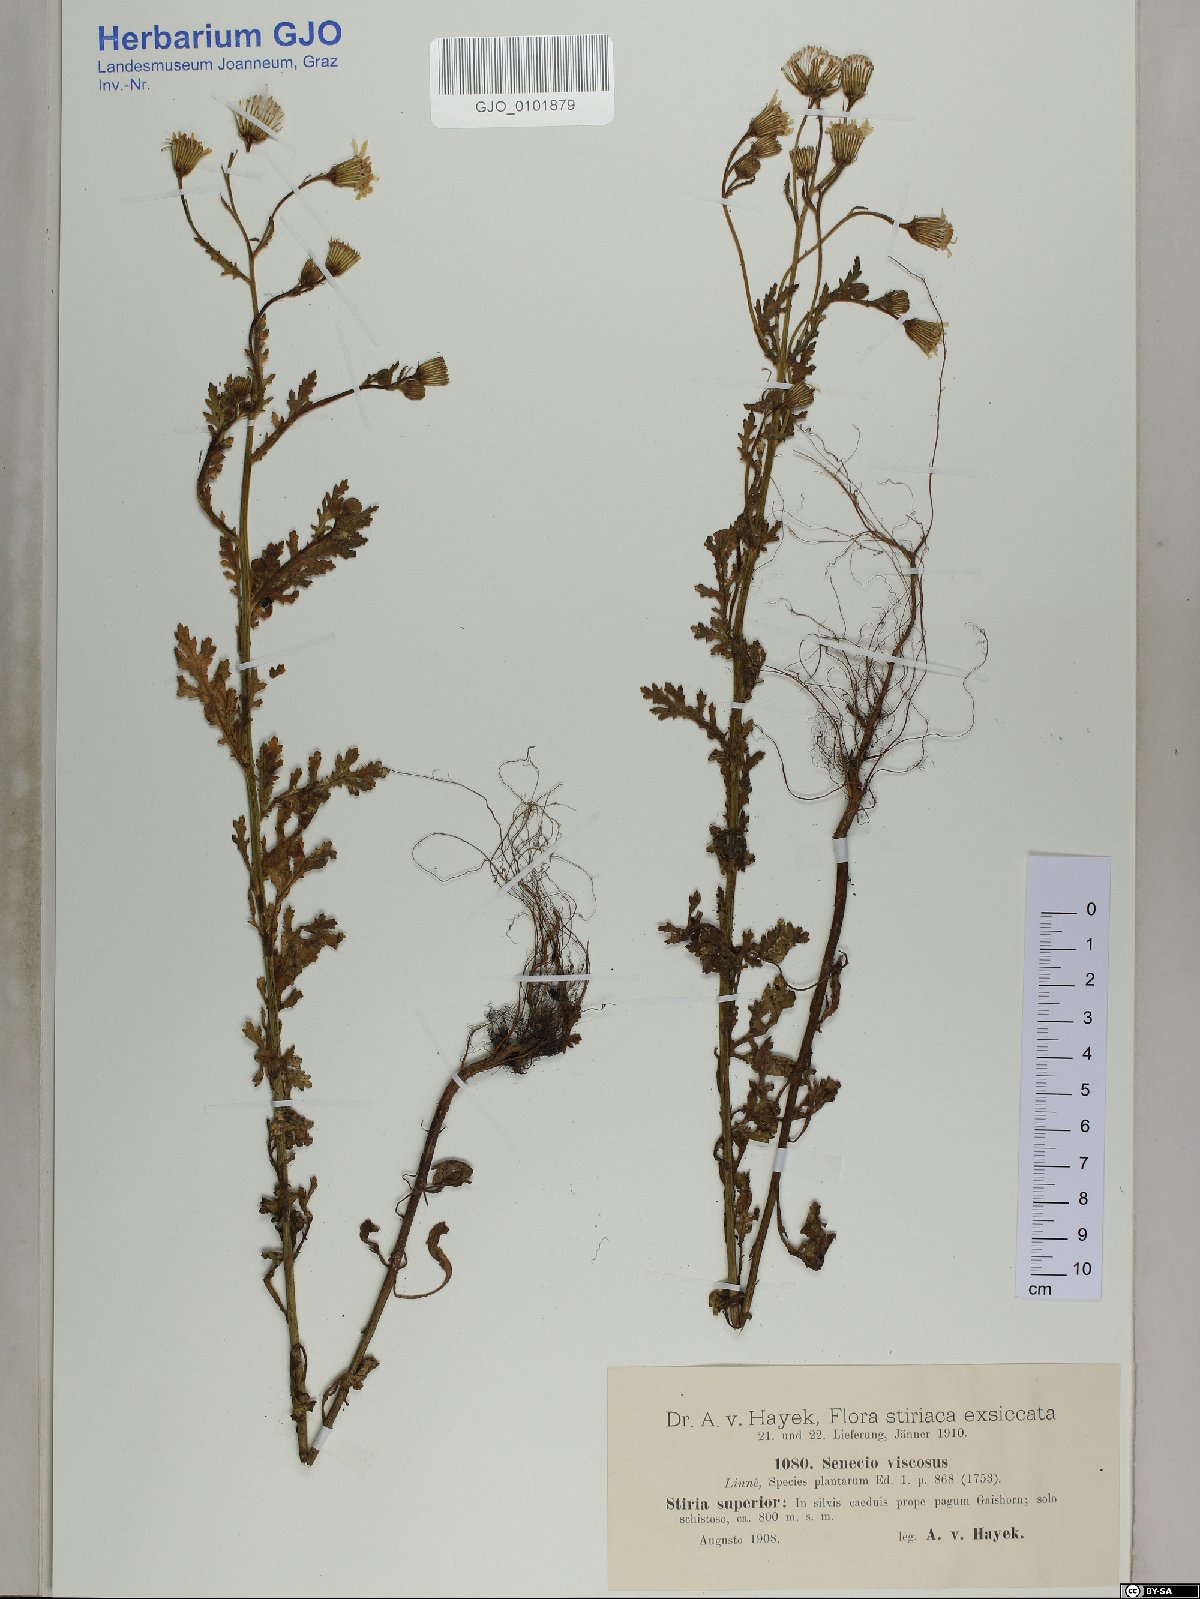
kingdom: Plantae
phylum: Tracheophyta
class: Magnoliopsida
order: Asterales
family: Asteraceae
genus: Senecio
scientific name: Senecio viscosus
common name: Sticky groundsel
